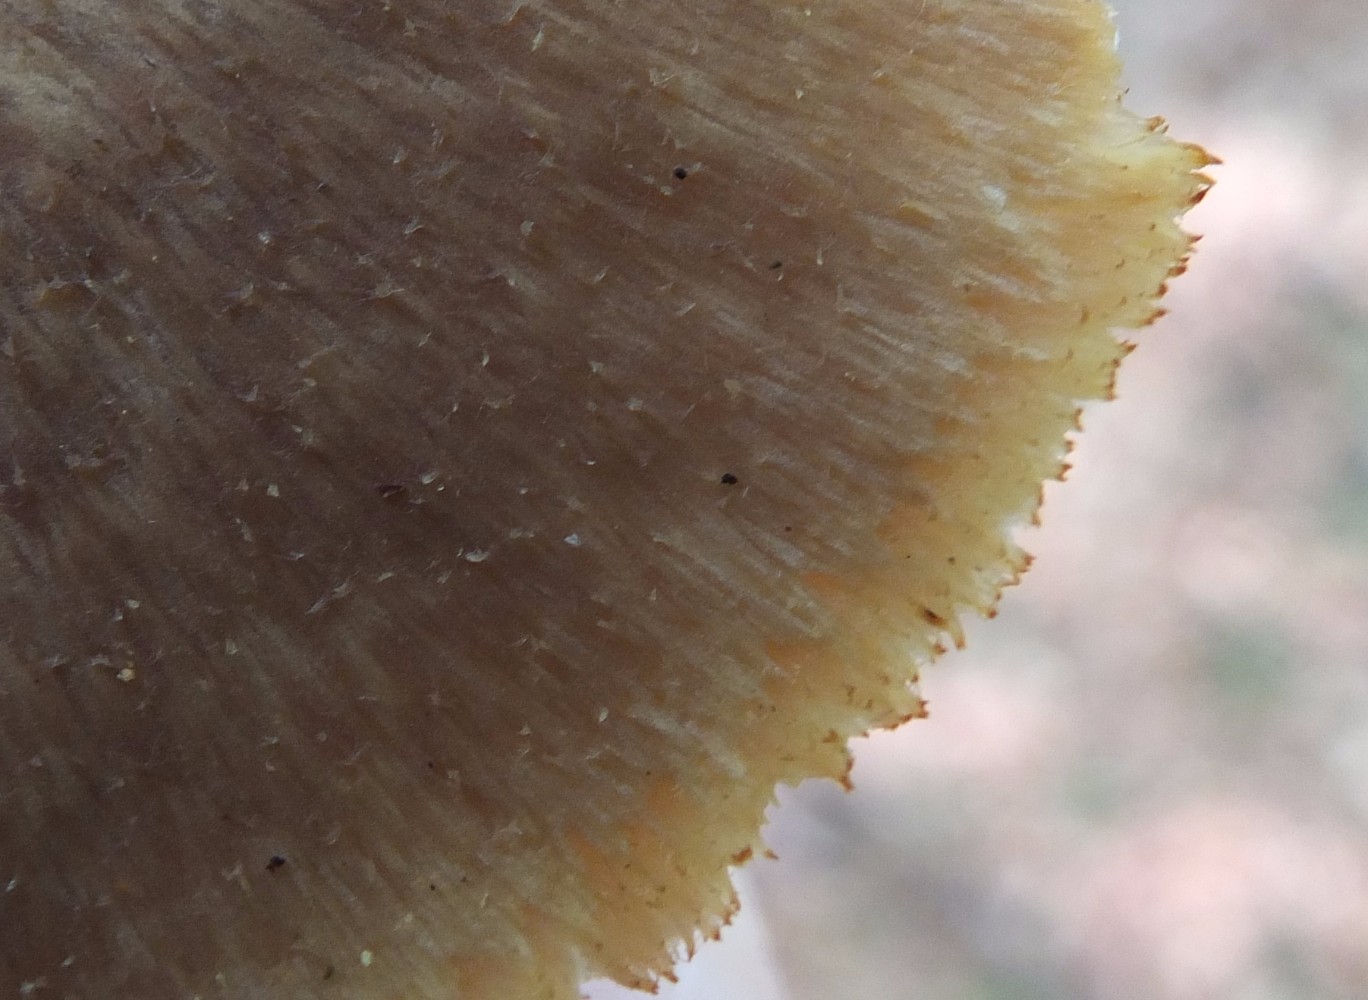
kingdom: Fungi
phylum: Basidiomycota
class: Agaricomycetes
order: Polyporales
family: Polyporaceae
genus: Polyporus
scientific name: Polyporus tuberaster
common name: knoldet stilkporesvamp
